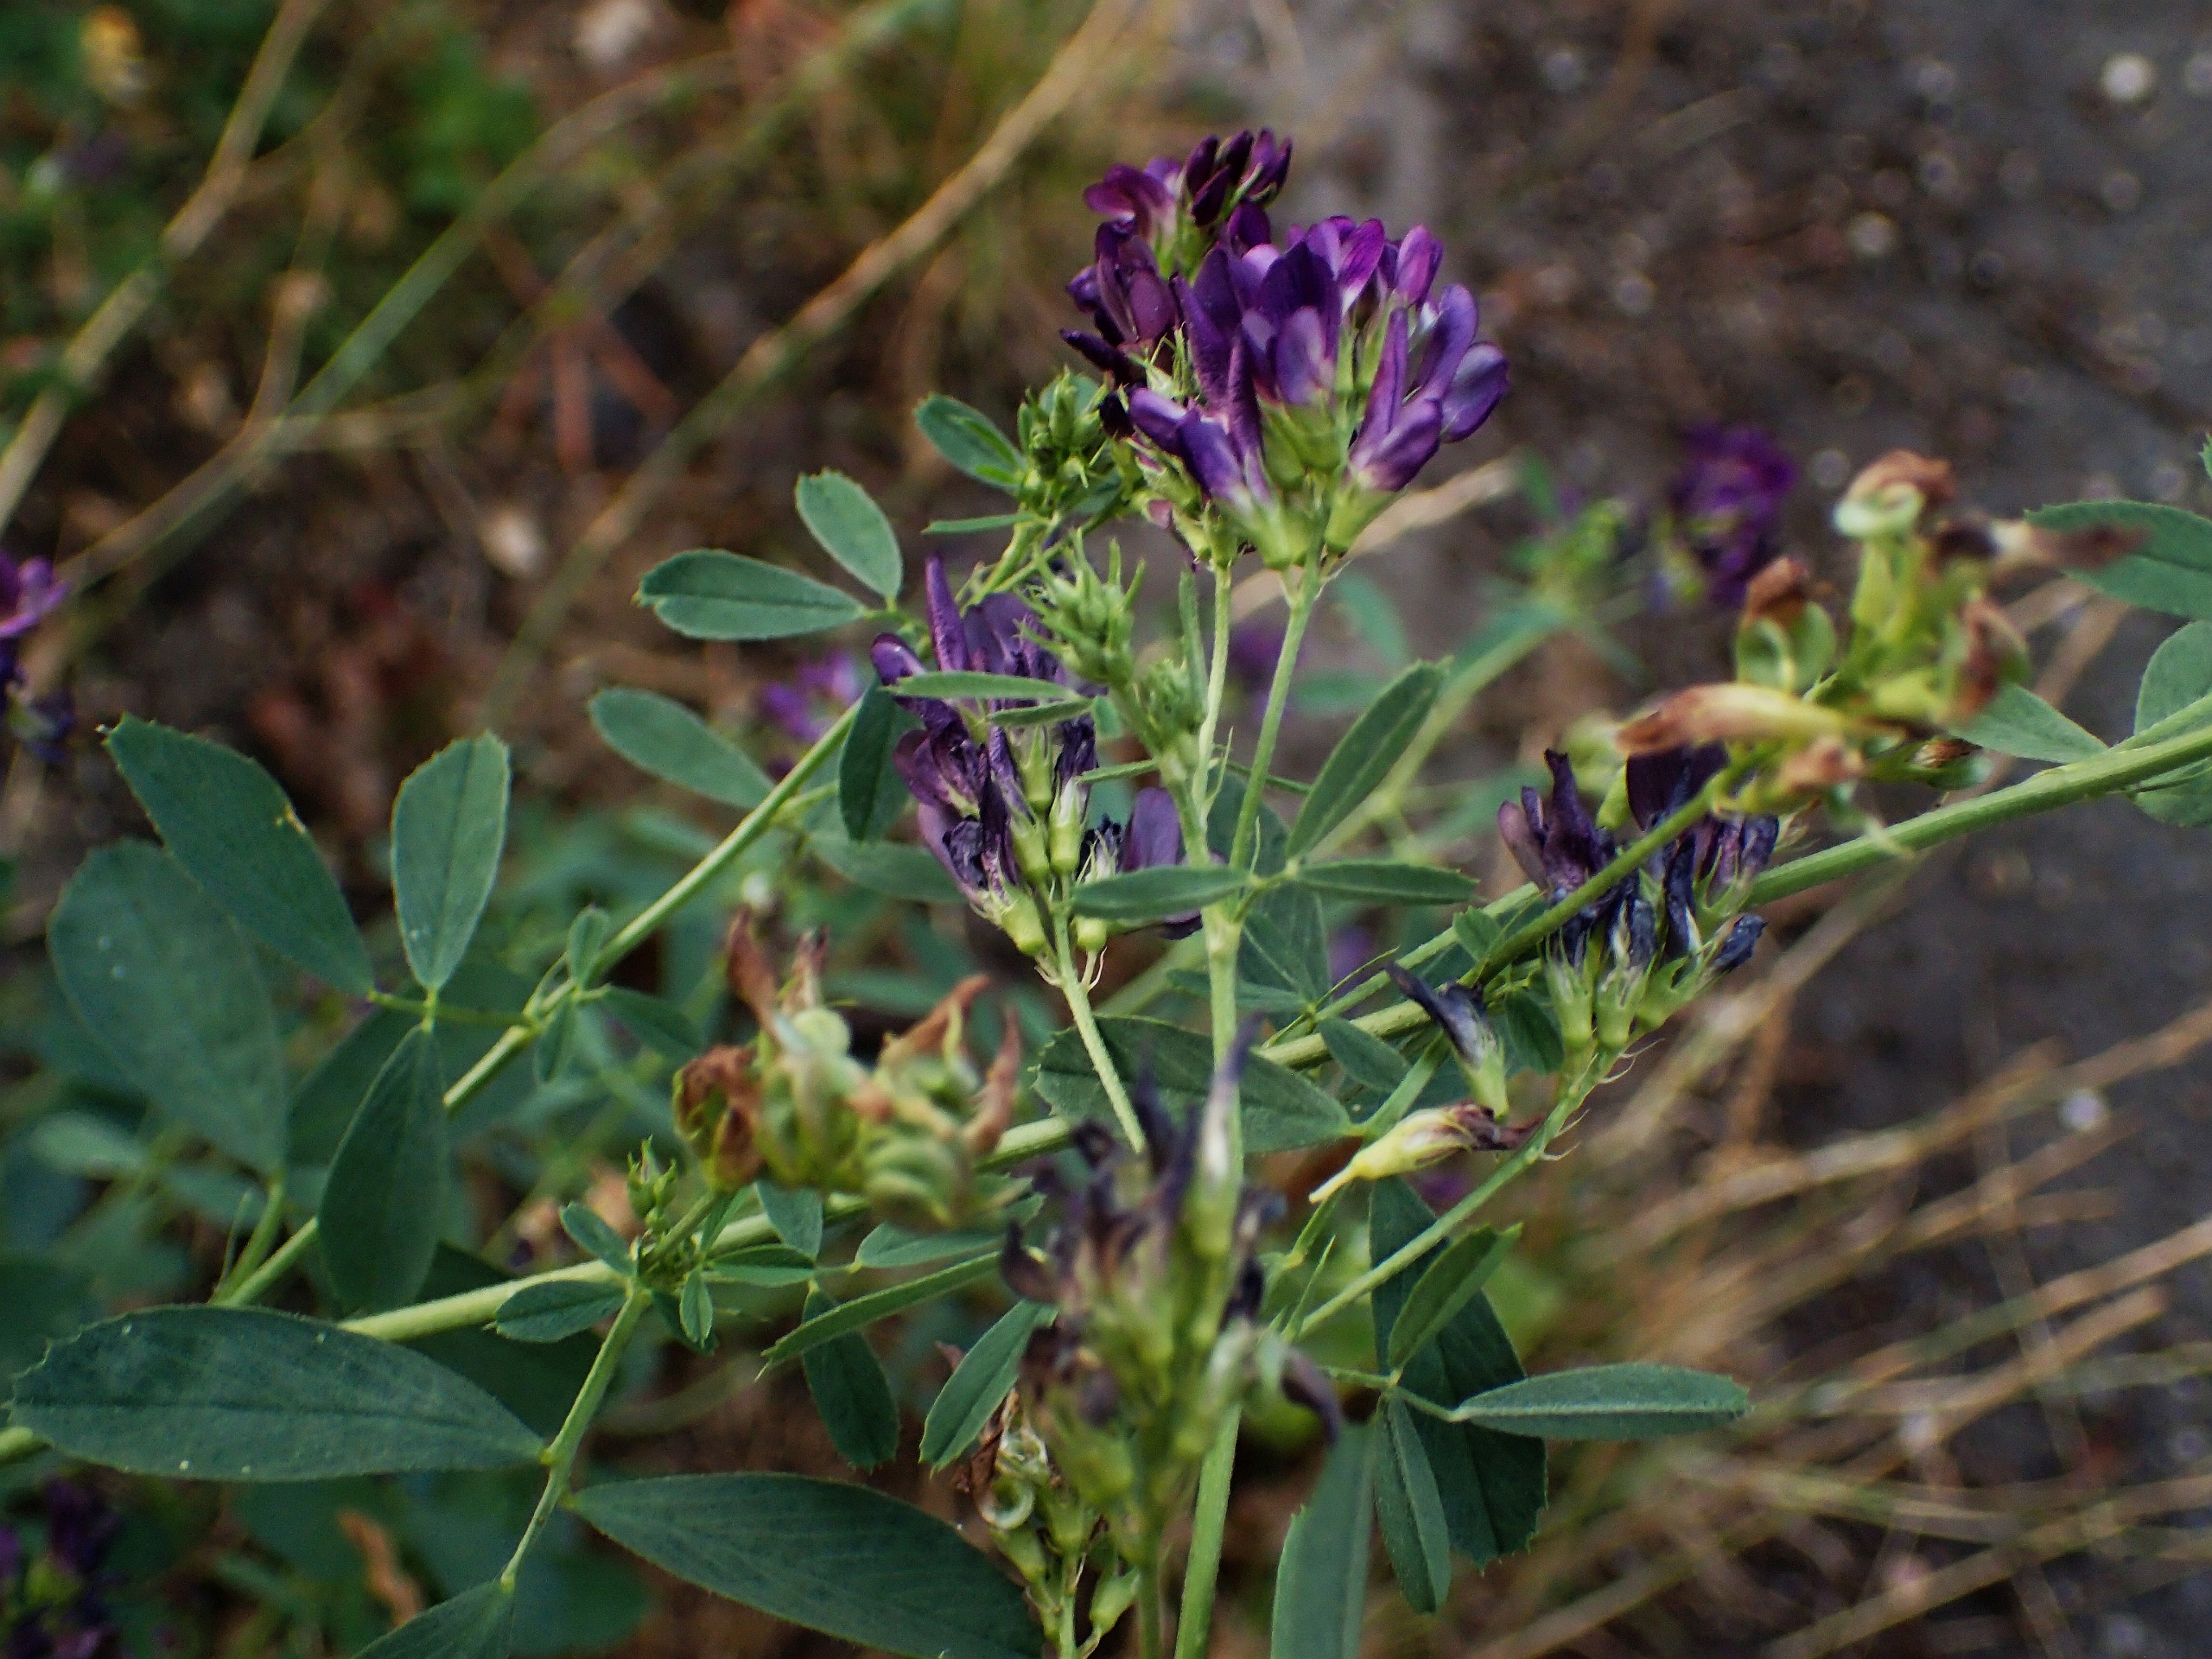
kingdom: Plantae
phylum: Tracheophyta
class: Magnoliopsida
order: Fabales
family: Fabaceae
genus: Medicago
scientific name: Medicago sativa
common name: Lucerne
